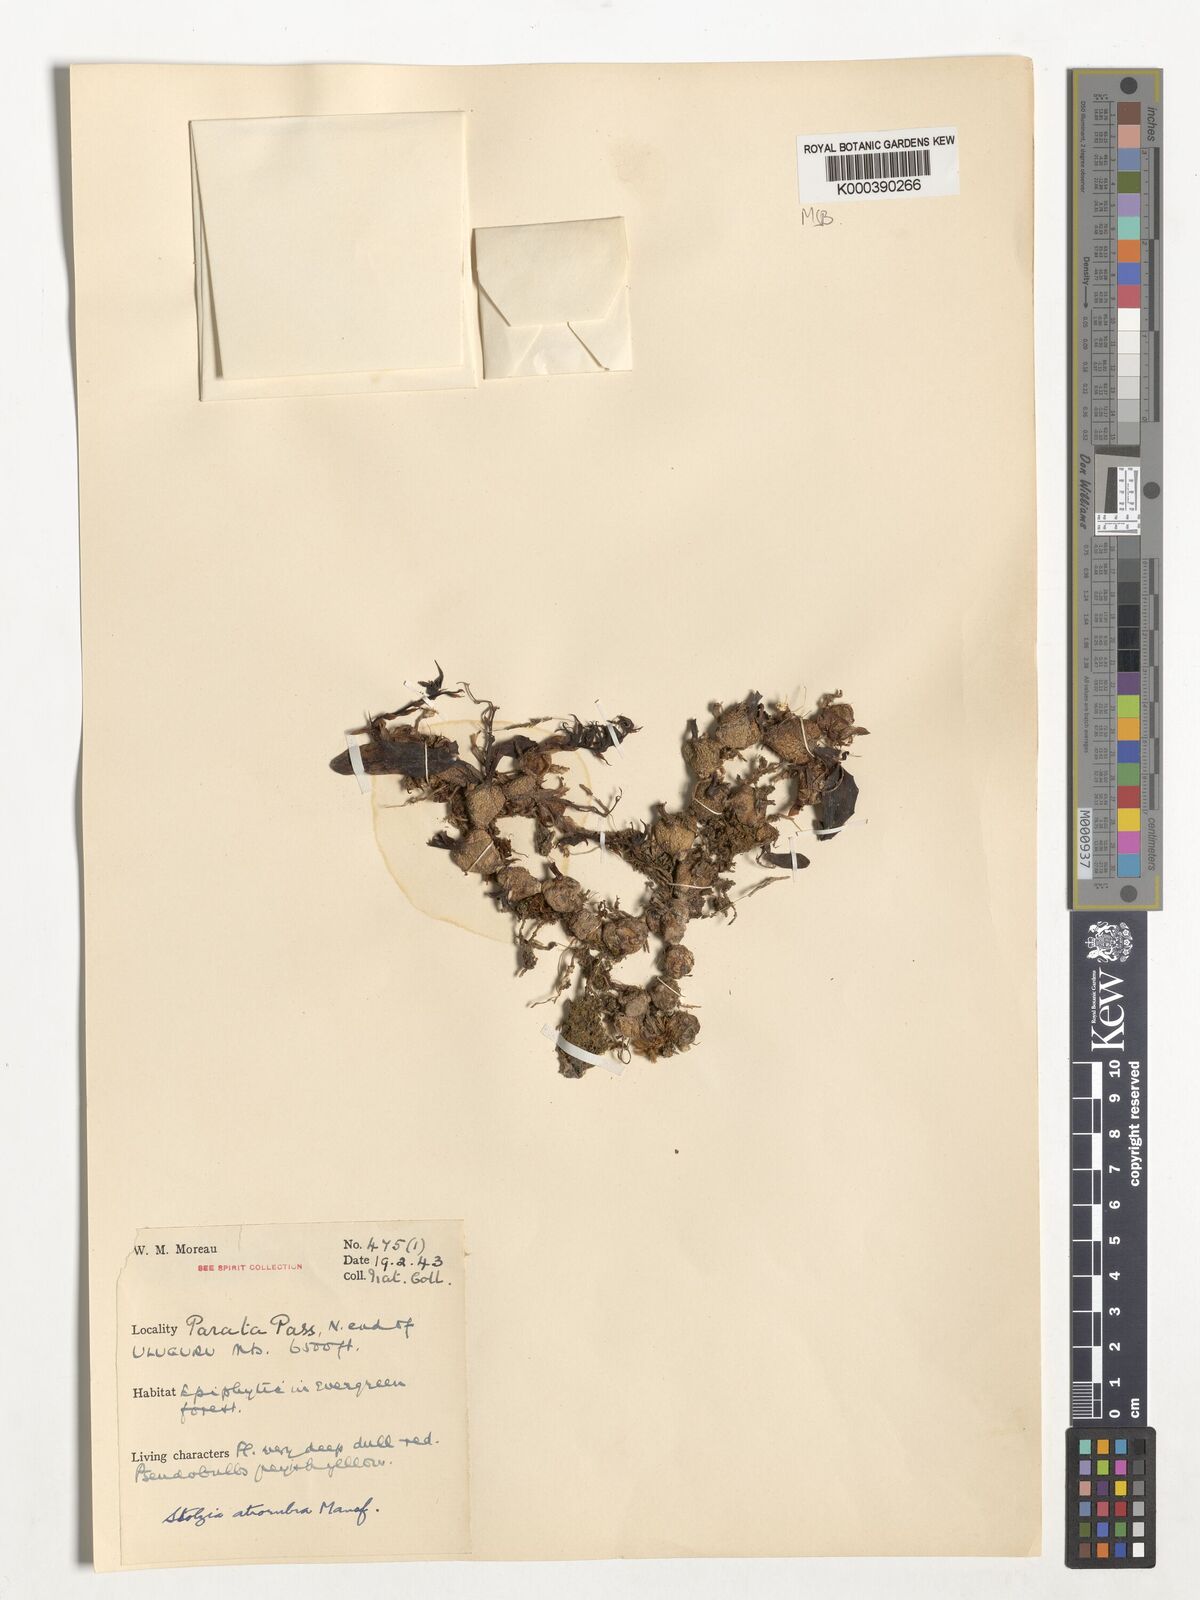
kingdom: Plantae
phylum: Tracheophyta
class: Liliopsida
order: Asparagales
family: Orchidaceae
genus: Porpax
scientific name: Porpax atrorubra
